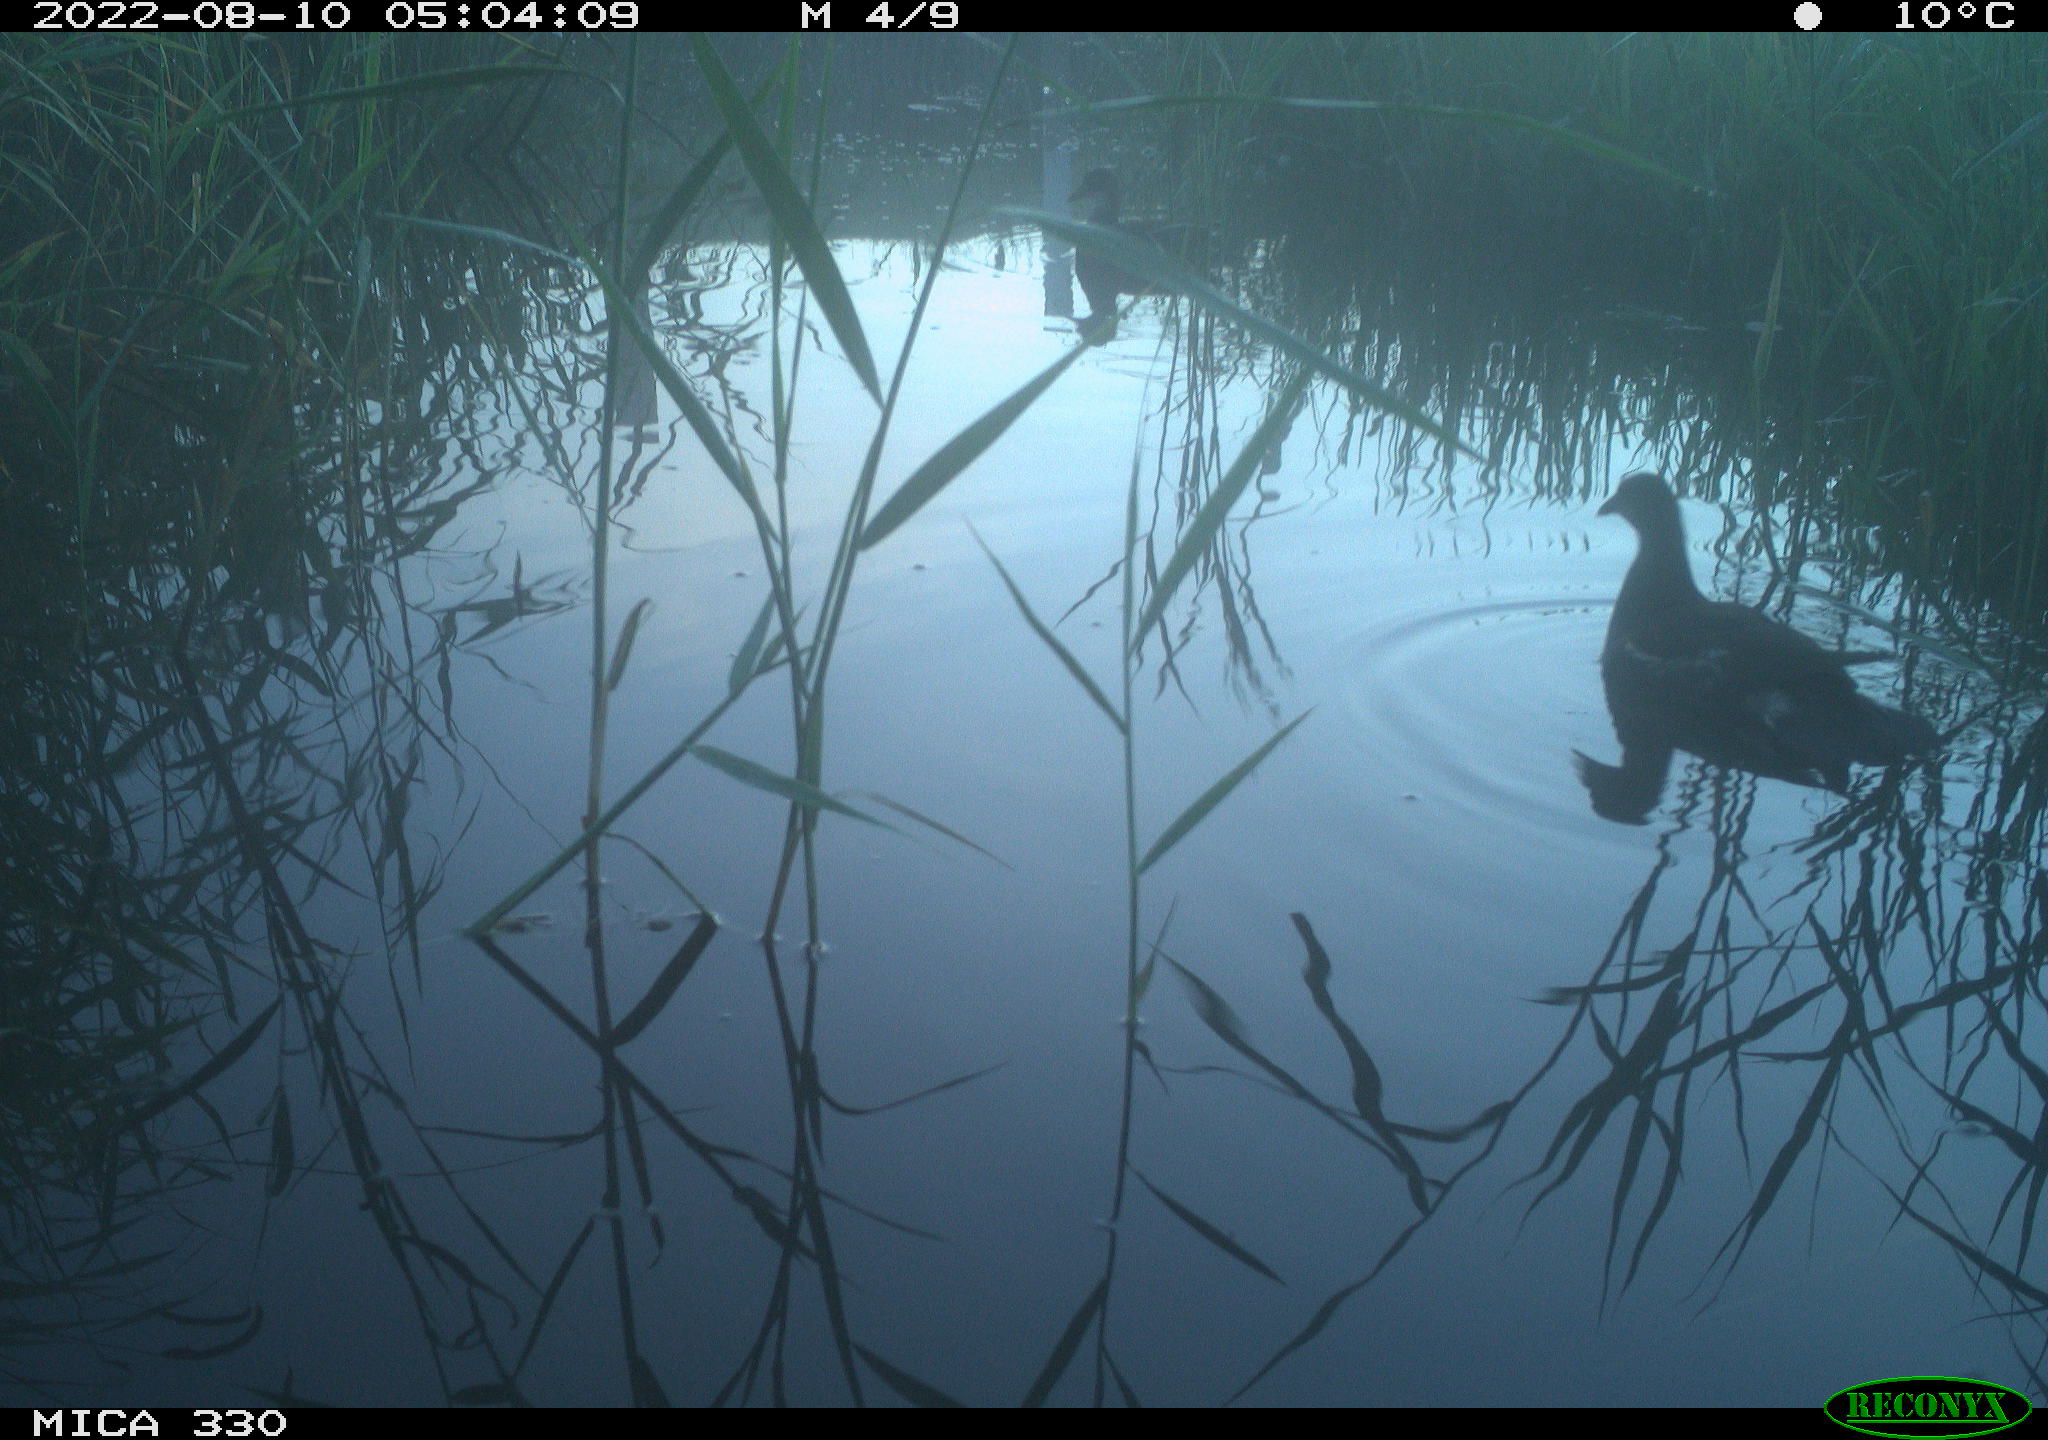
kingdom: Animalia
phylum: Chordata
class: Aves
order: Gruiformes
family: Rallidae
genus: Gallinula
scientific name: Gallinula chloropus
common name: Common moorhen
